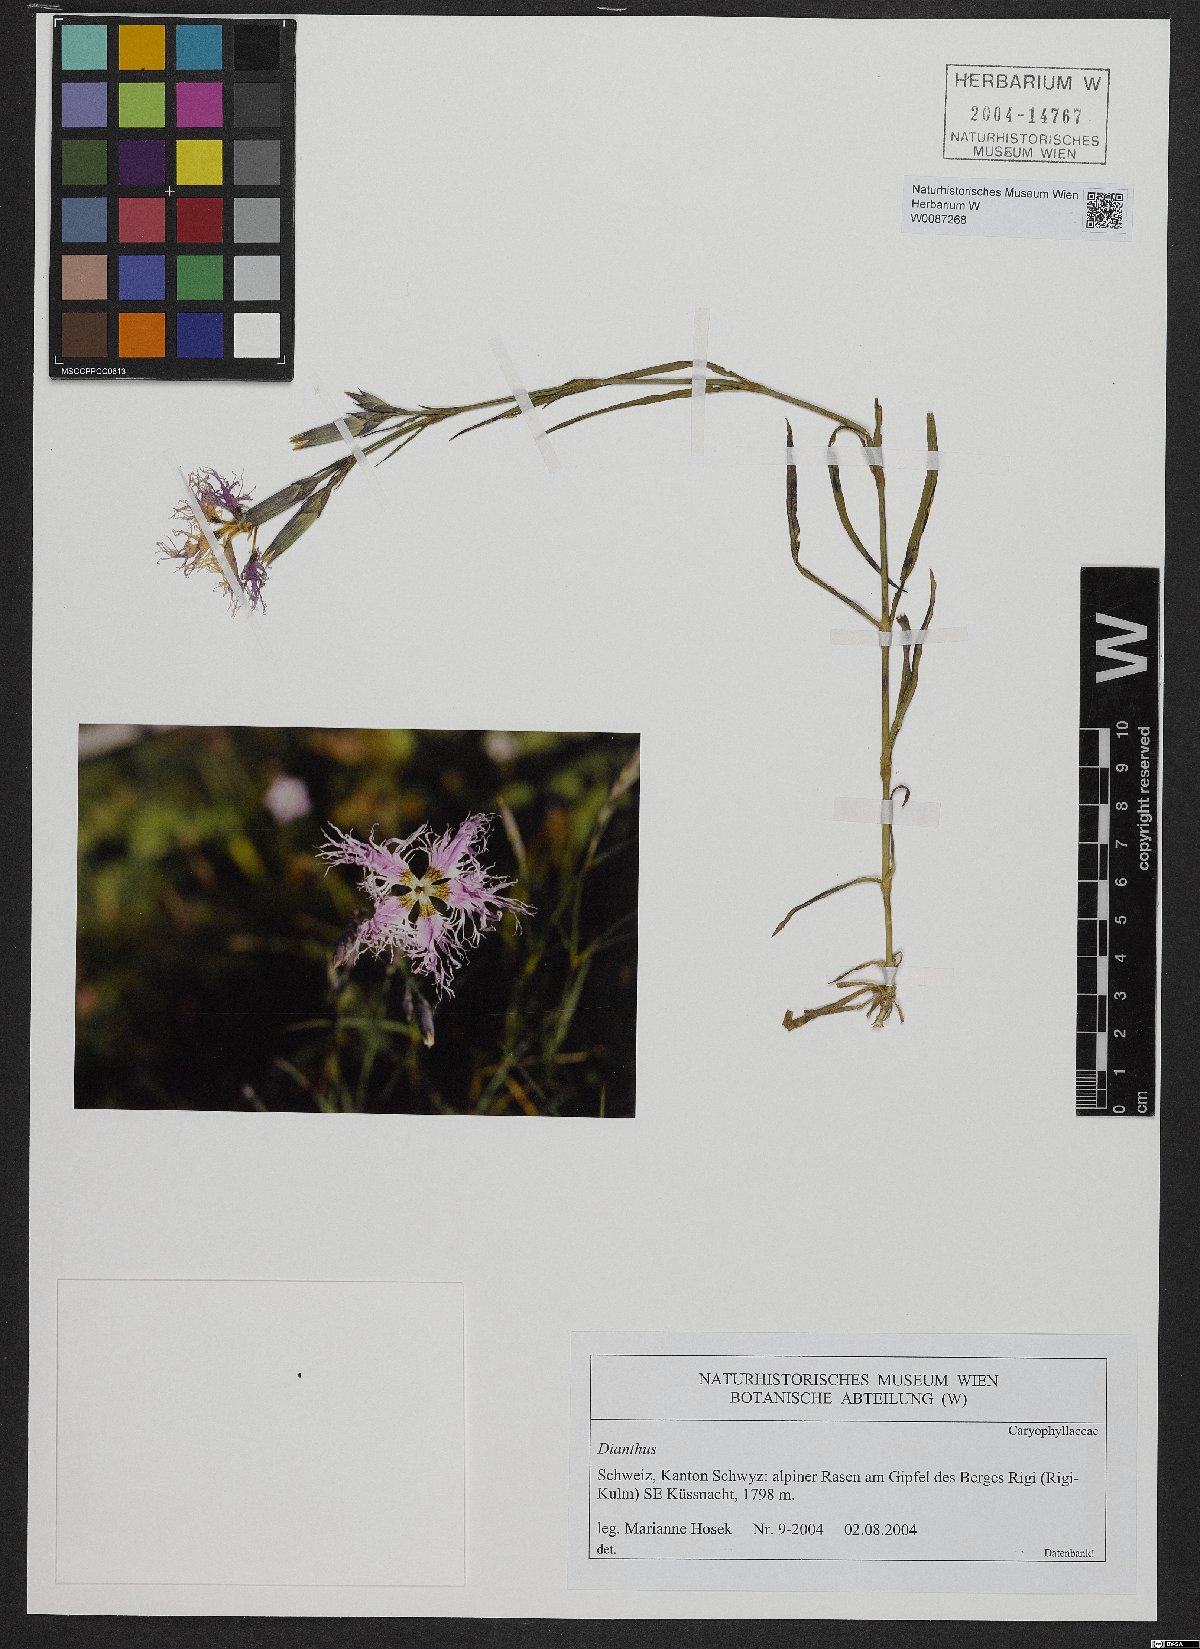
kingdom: Plantae
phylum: Tracheophyta
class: Magnoliopsida
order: Caryophyllales
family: Caryophyllaceae
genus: Dianthus
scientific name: Dianthus superbus
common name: Fringed pink
